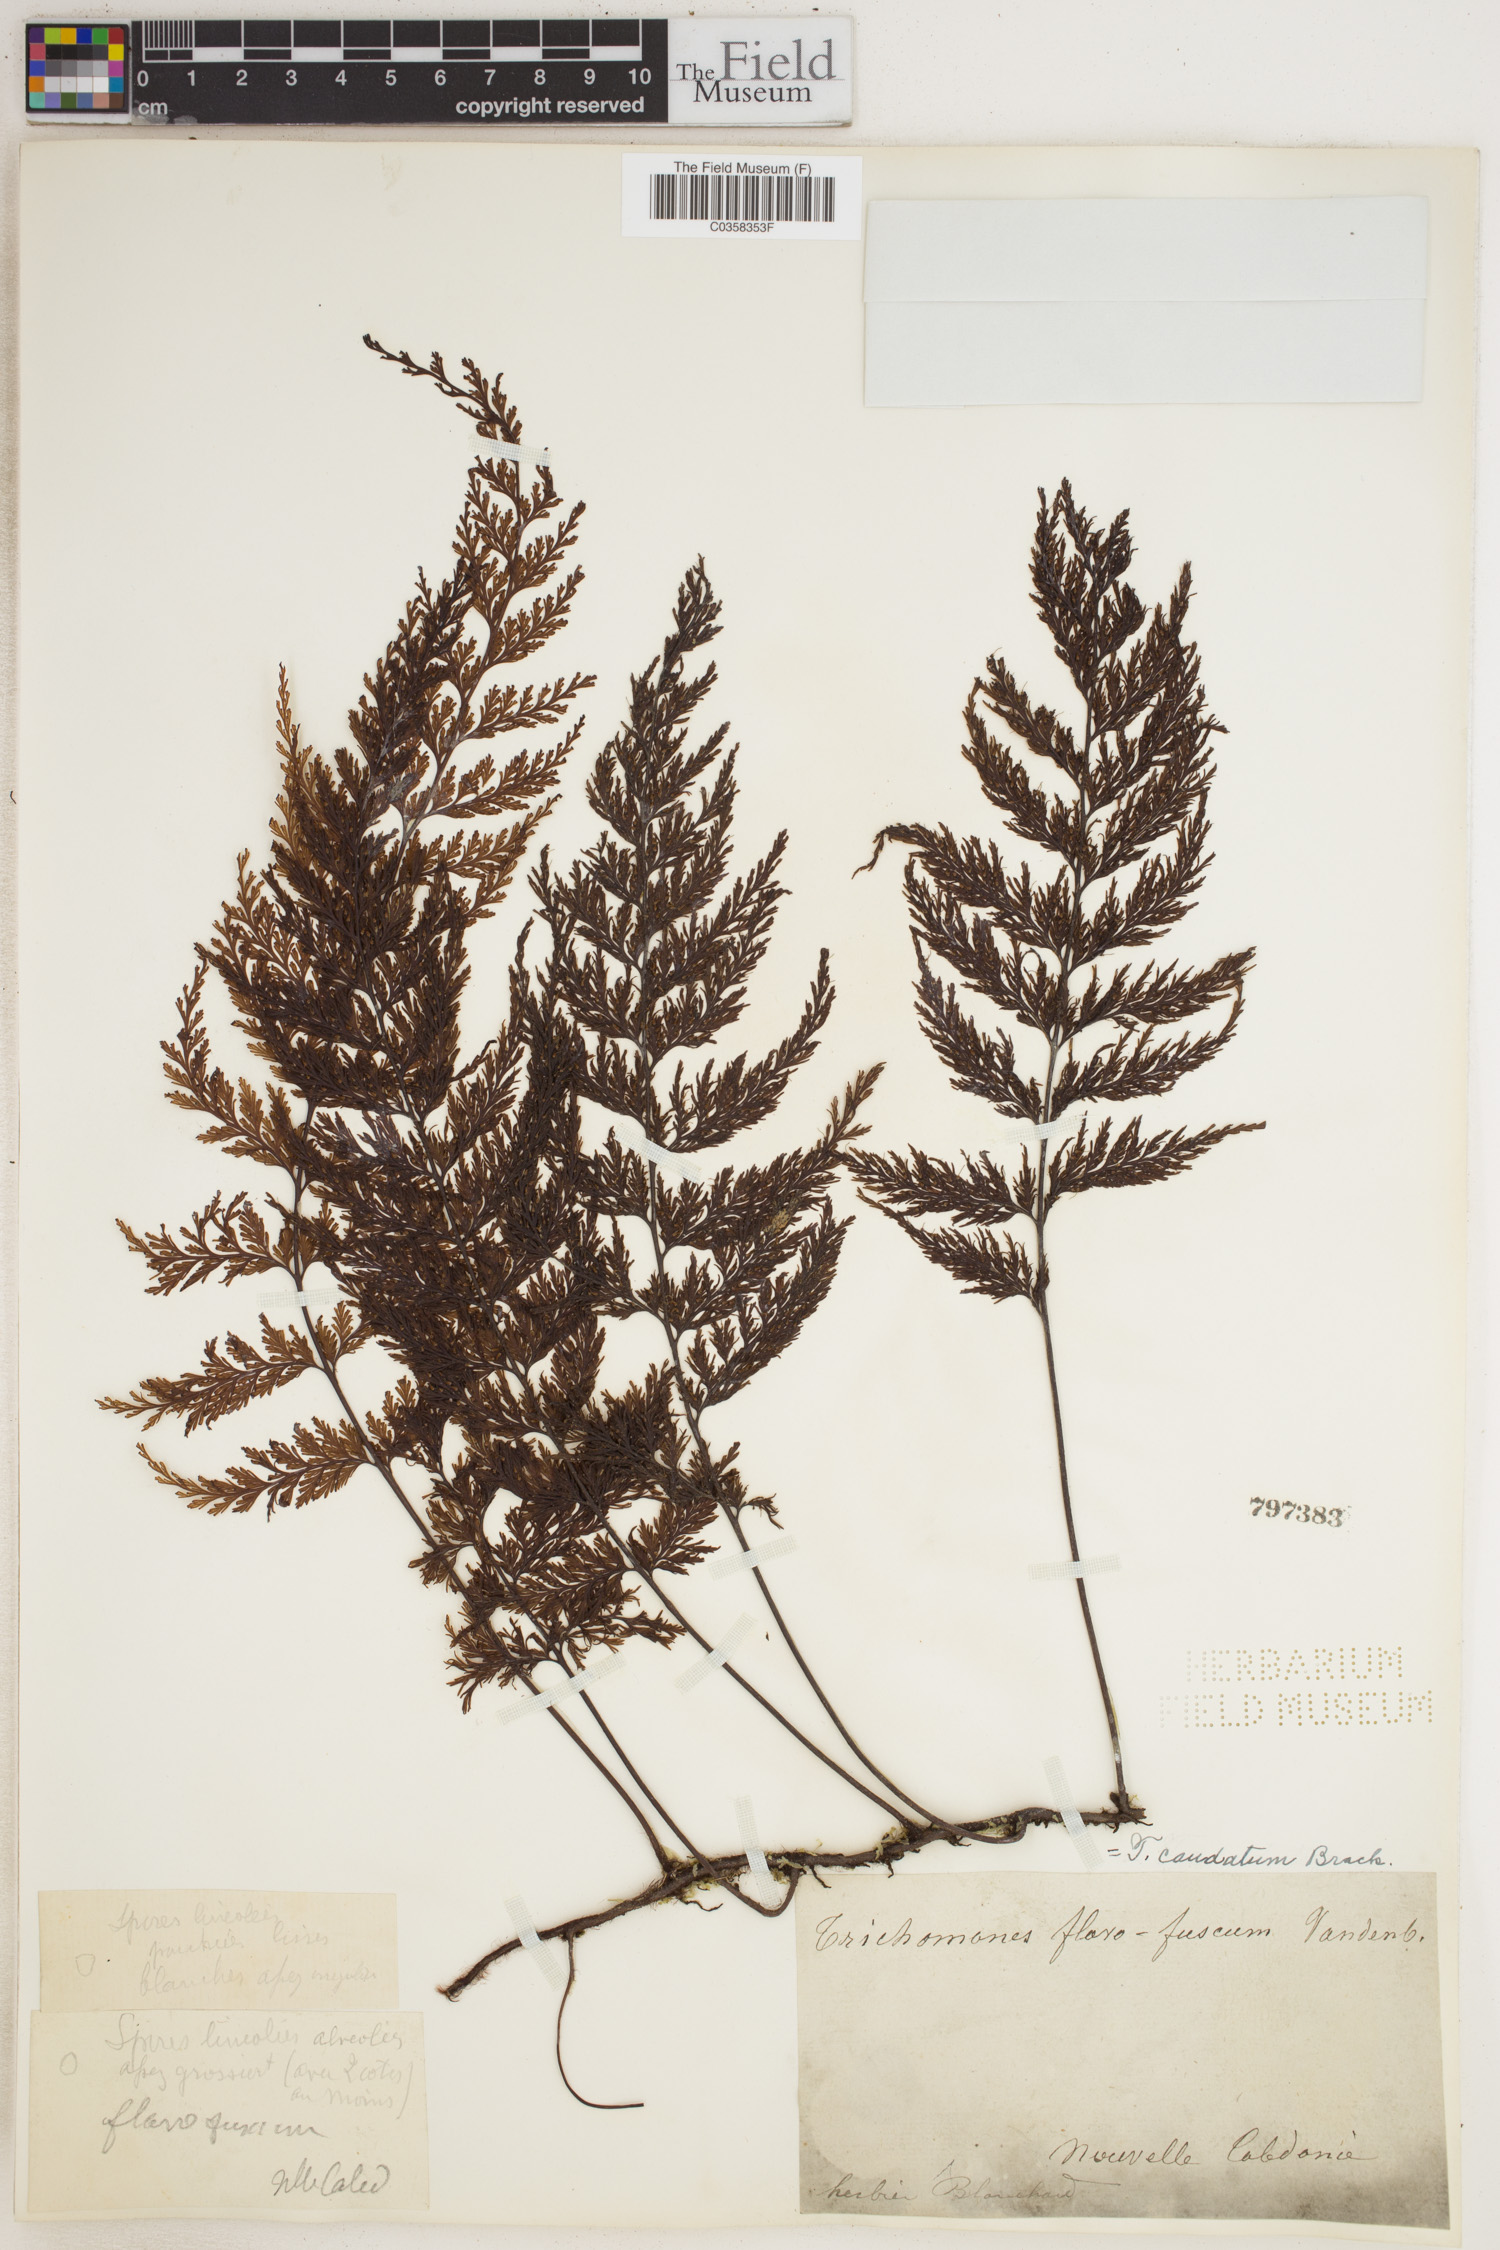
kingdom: Plantae
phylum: Tracheophyta
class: Polypodiopsida
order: Hymenophyllales
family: Hymenophyllaceae
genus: Abrodictyum
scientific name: Abrodictyum caudatum
